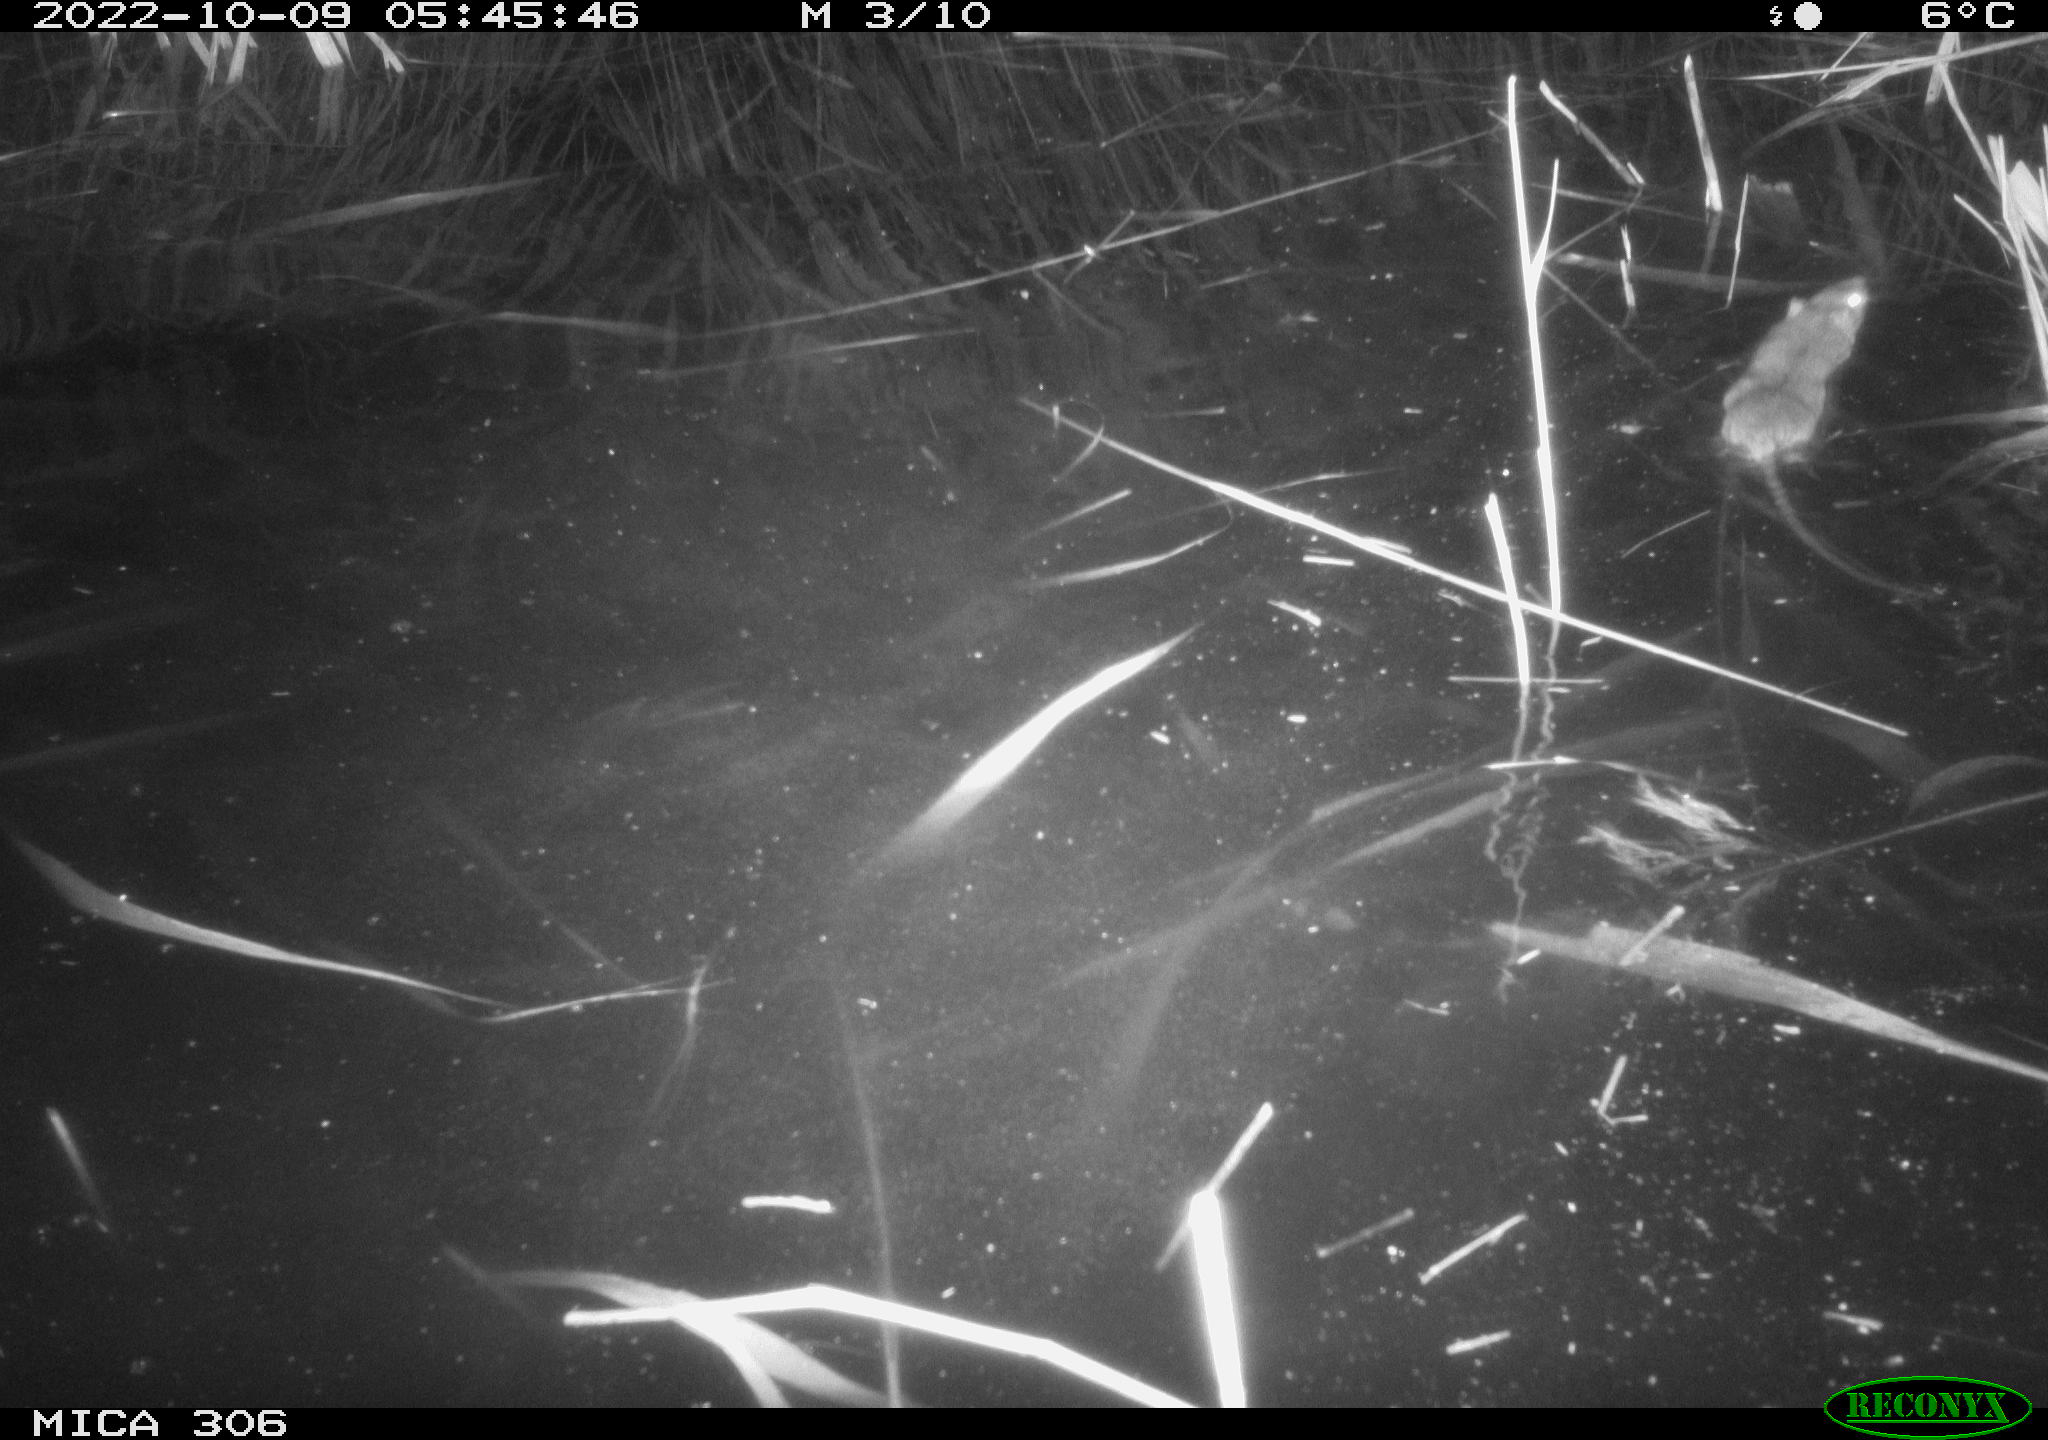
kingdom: Animalia
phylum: Chordata
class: Mammalia
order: Rodentia
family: Muridae
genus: Rattus
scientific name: Rattus norvegicus
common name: Brown rat
